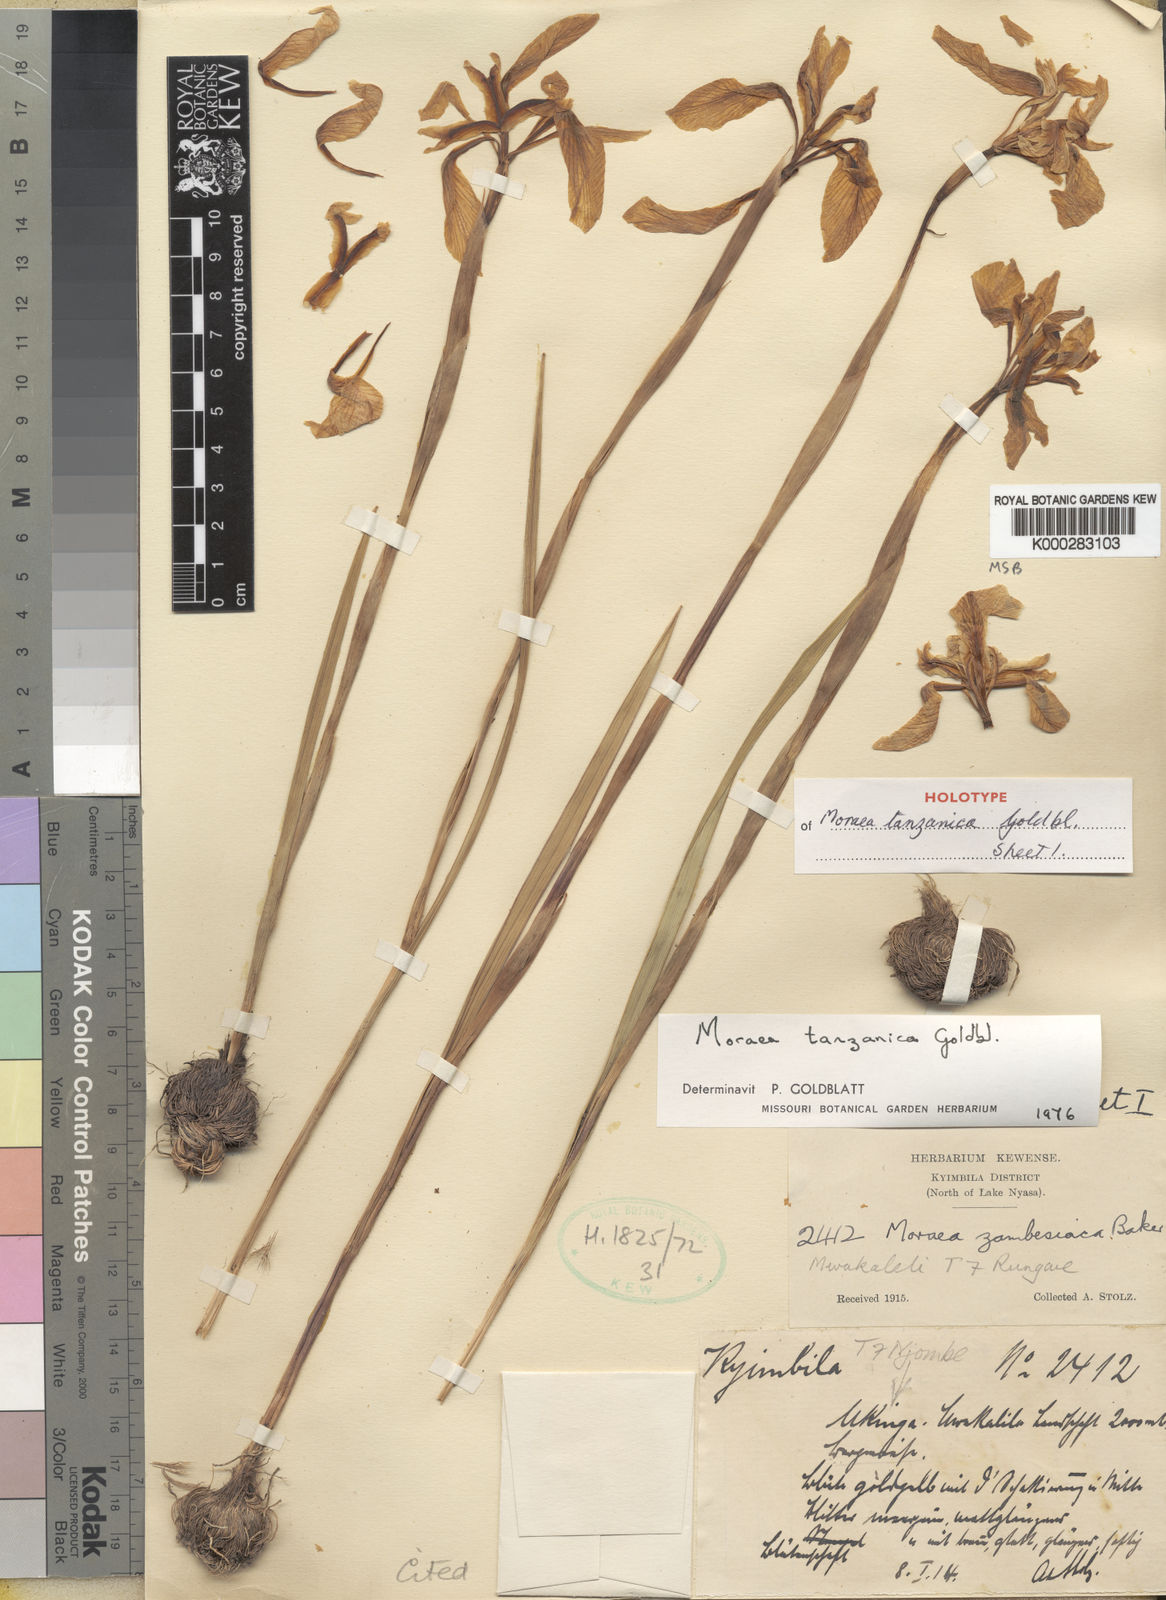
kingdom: Plantae
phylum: Tracheophyta
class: Liliopsida
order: Asparagales
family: Iridaceae
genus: Moraea
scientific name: Moraea tanzanica
